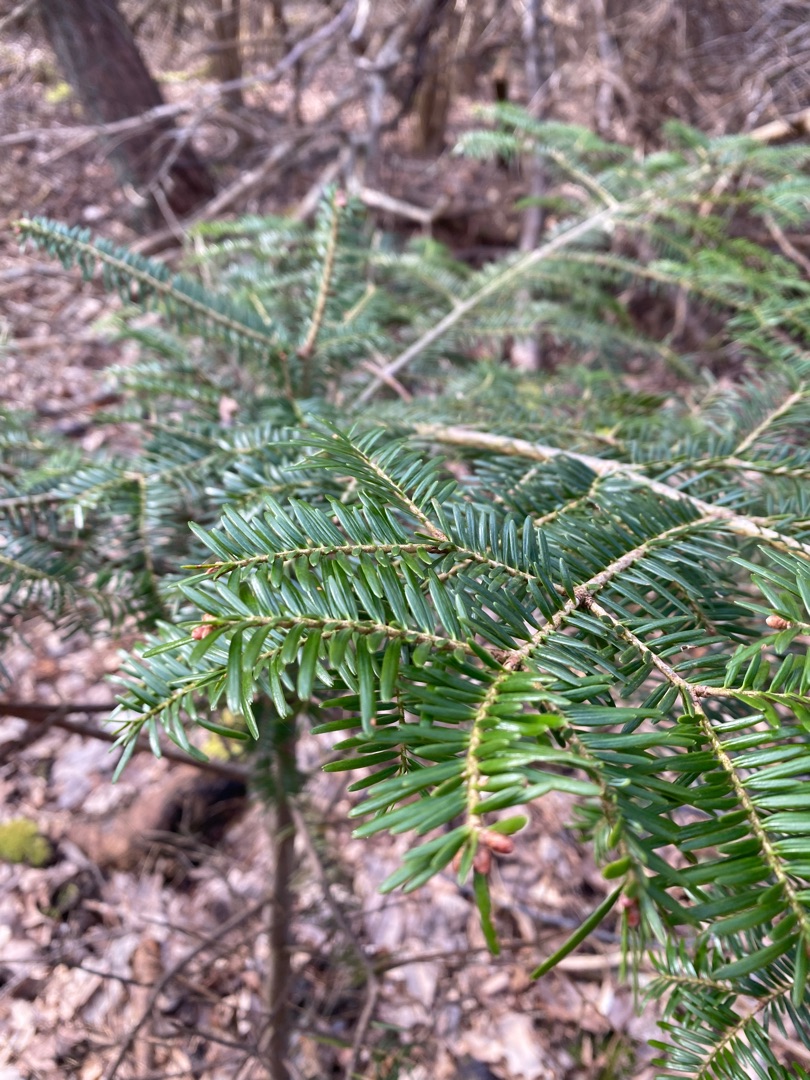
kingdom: Plantae
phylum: Tracheophyta
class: Pinopsida
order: Pinales
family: Pinaceae
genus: Abies
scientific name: Abies alba
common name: Almindelig ædelgran
